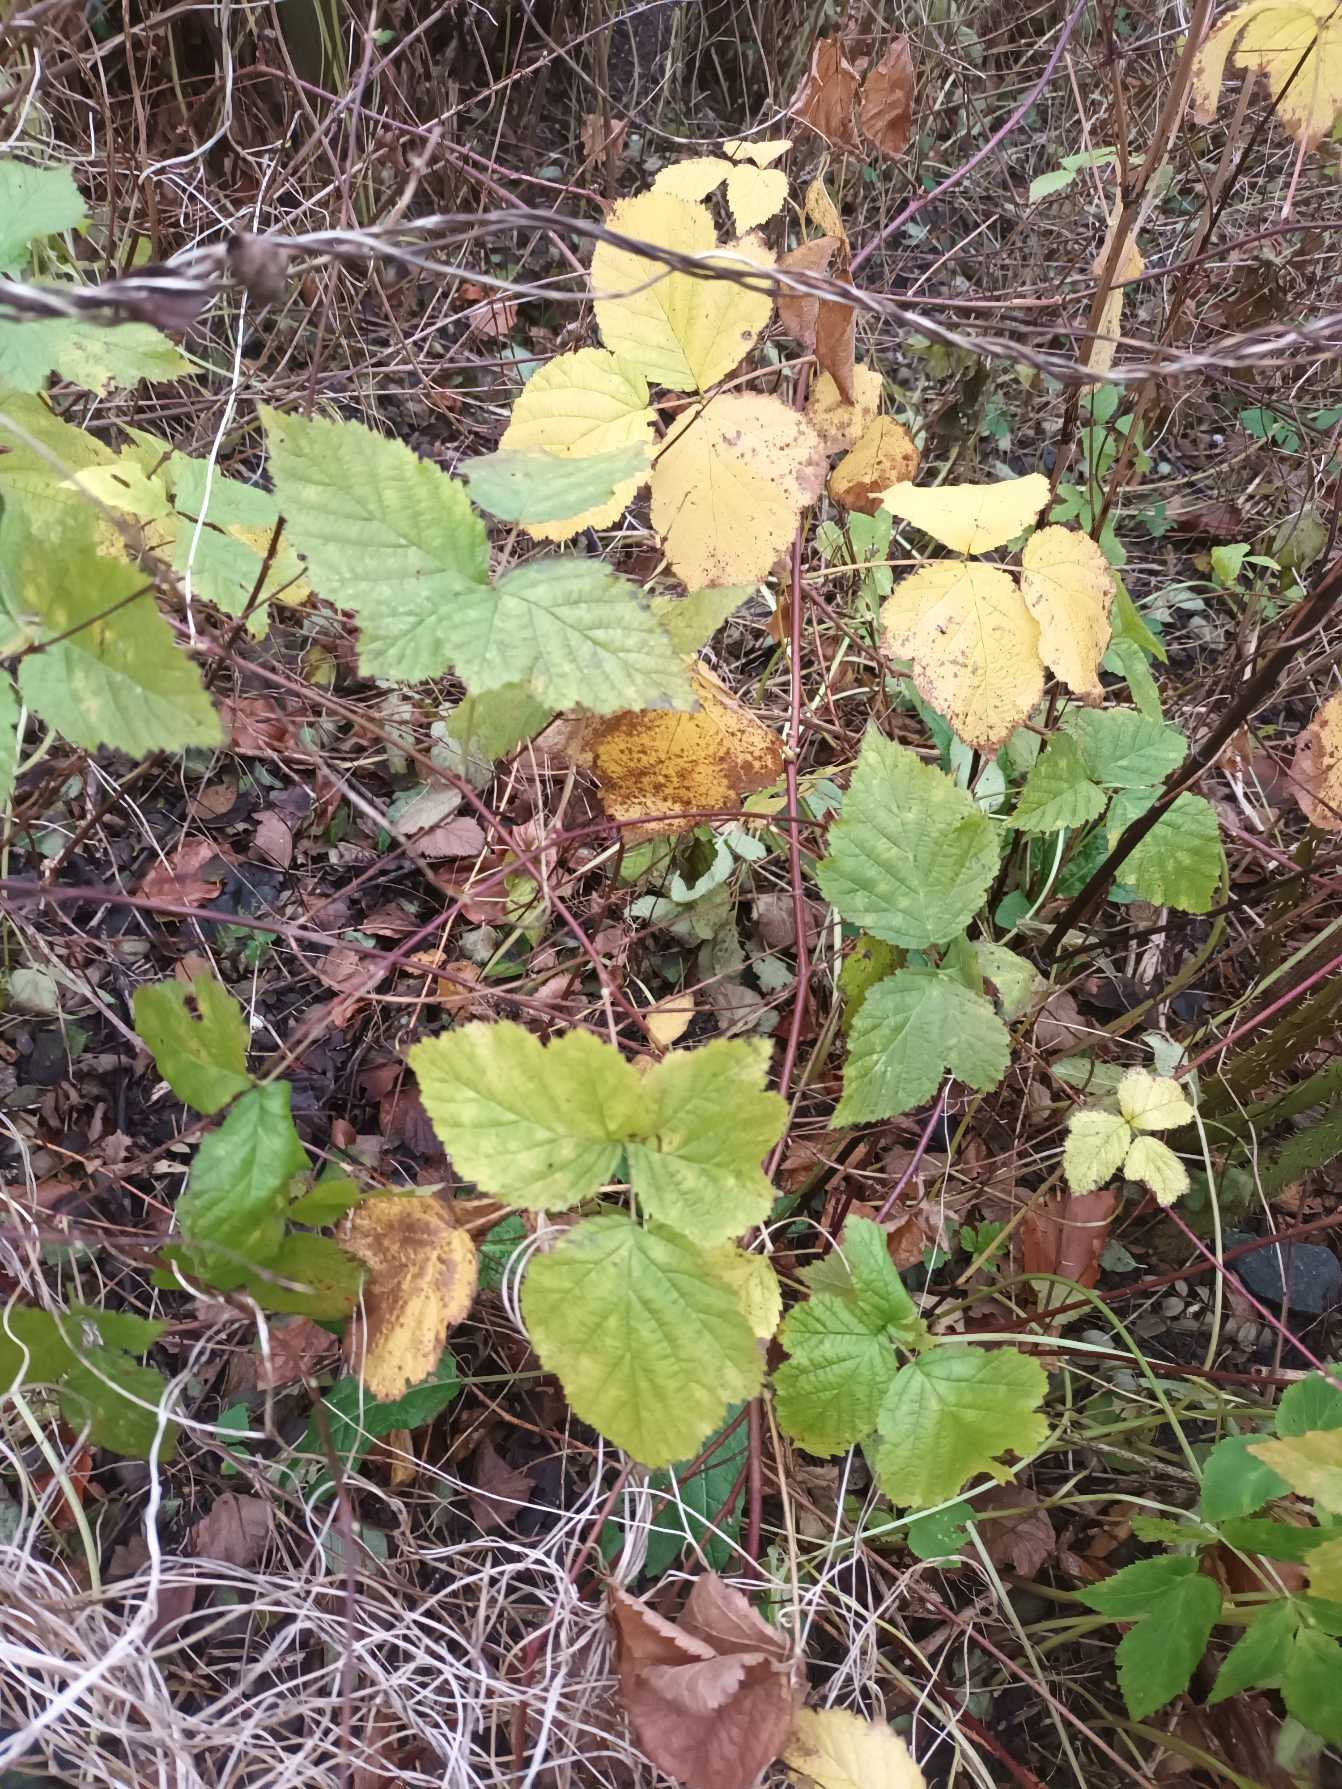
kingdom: Plantae
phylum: Tracheophyta
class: Magnoliopsida
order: Rosales
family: Rosaceae
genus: Rubus
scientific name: Rubus caesius
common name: Korbær
